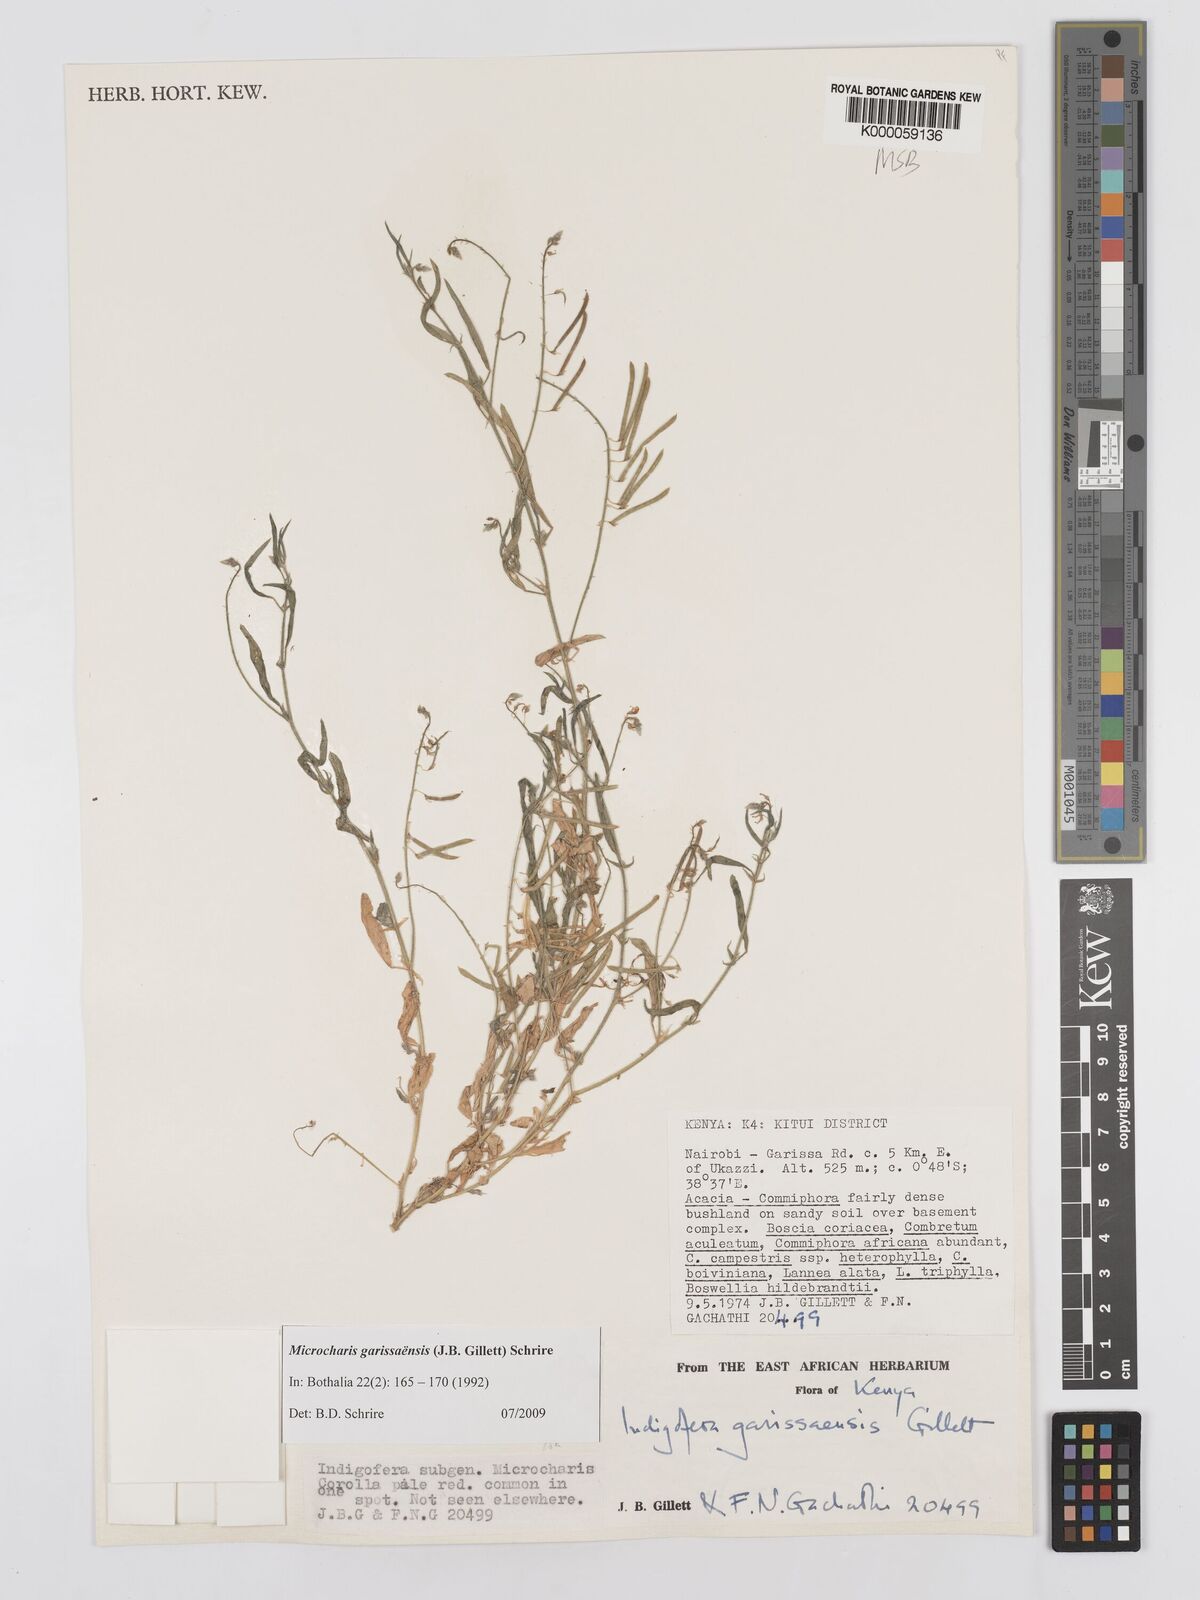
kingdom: Plantae
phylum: Tracheophyta
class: Magnoliopsida
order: Fabales
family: Fabaceae
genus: Microcharis
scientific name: Microcharis garissaensis
